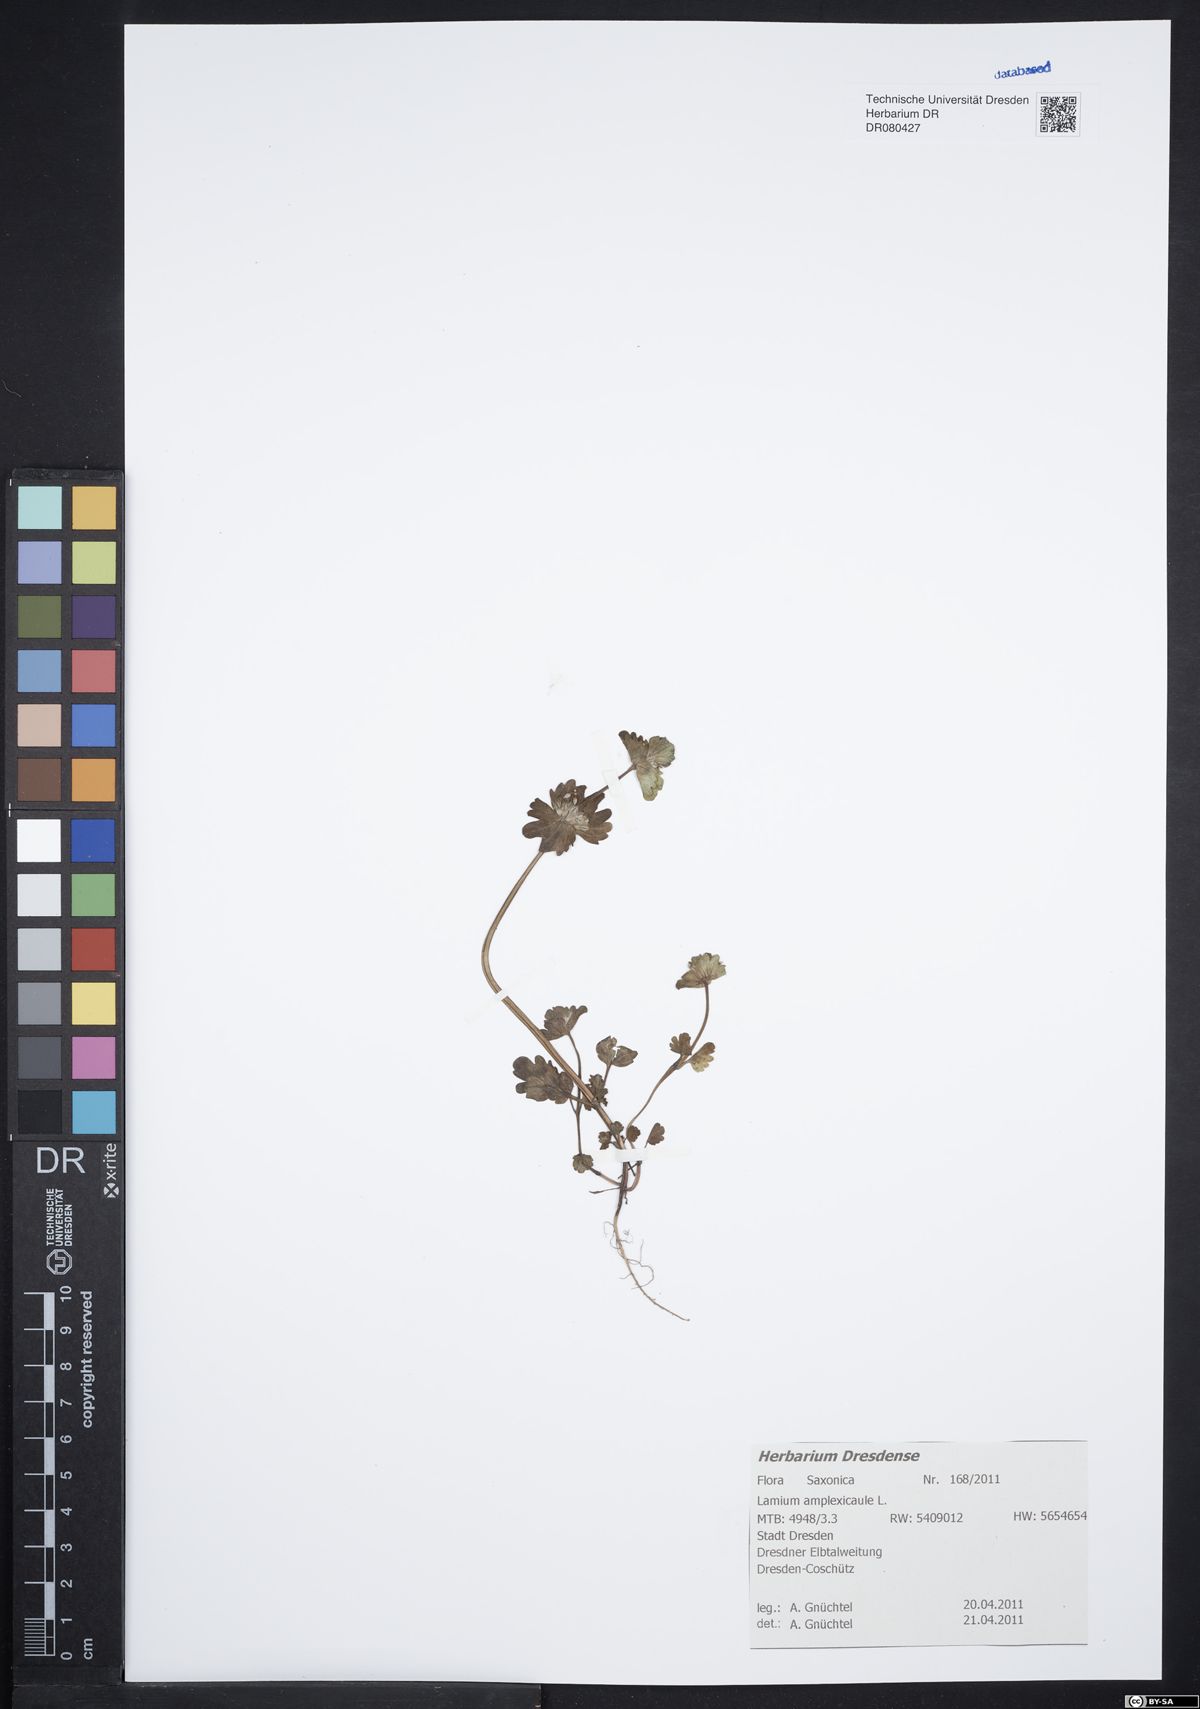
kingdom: Plantae
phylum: Tracheophyta
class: Magnoliopsida
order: Lamiales
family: Lamiaceae
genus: Lamium
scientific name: Lamium amplexicaule
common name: Henbit dead-nettle
